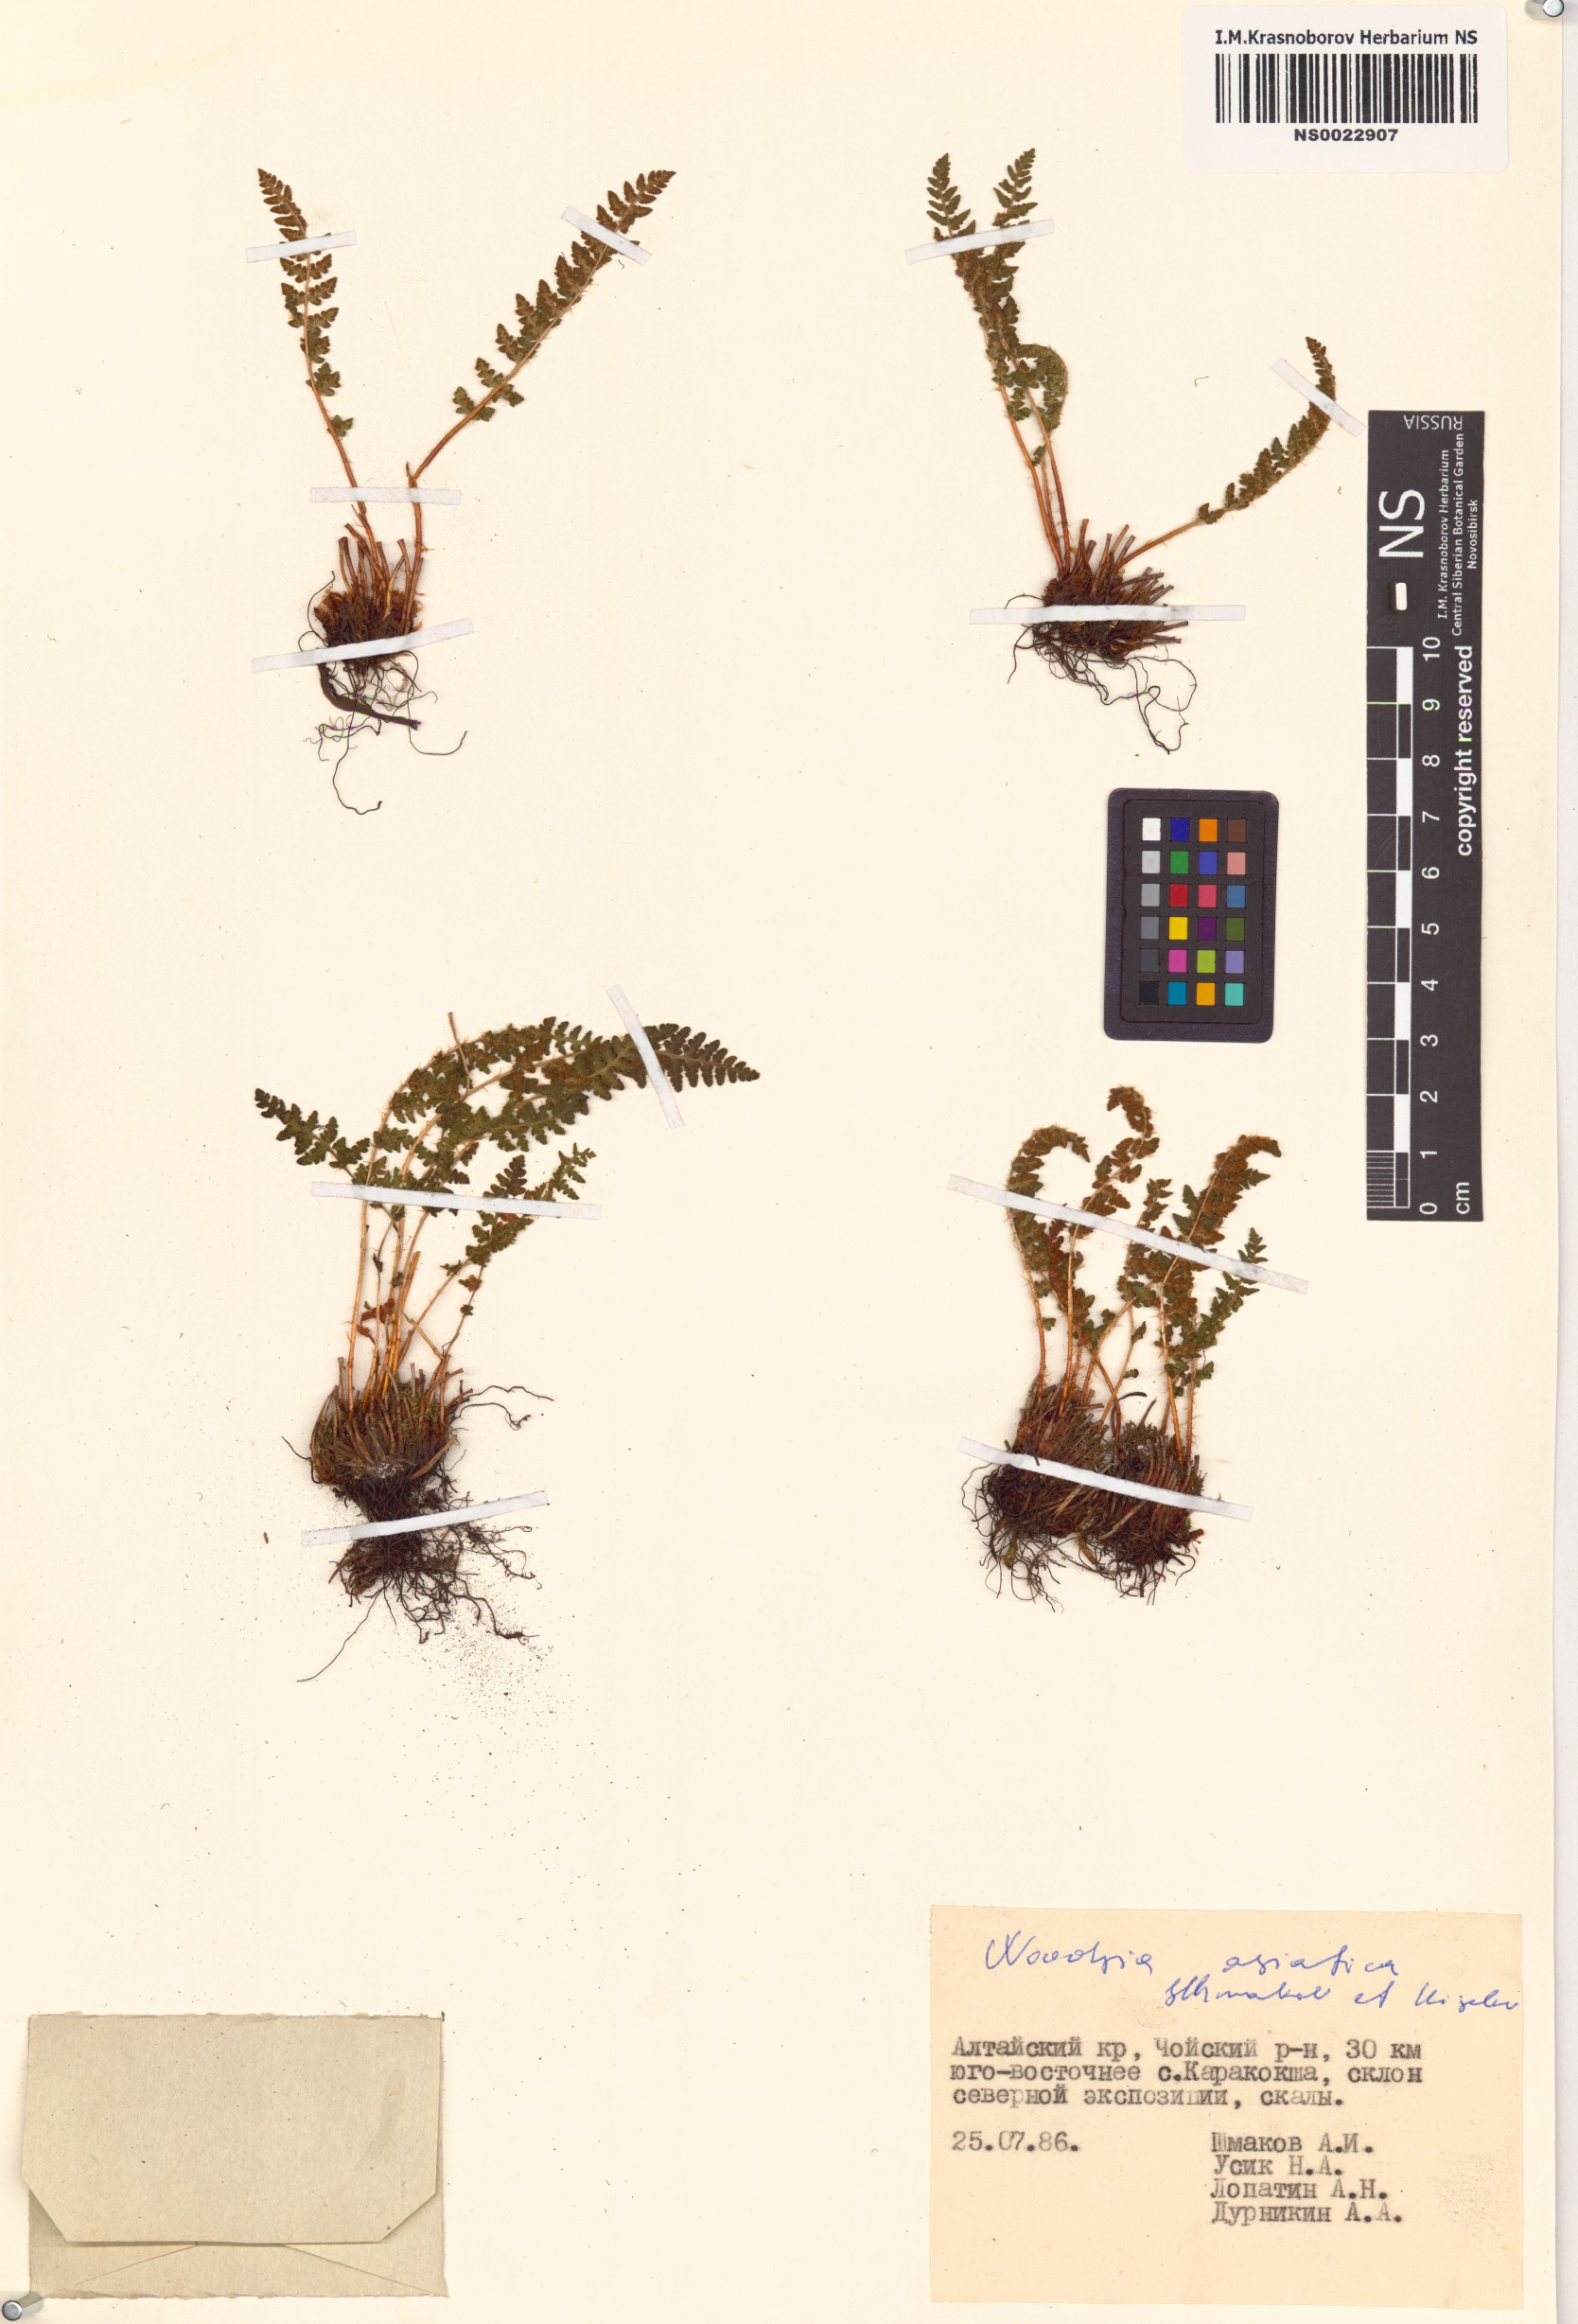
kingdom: Plantae
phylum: Tracheophyta
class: Polypodiopsida
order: Polypodiales
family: Woodsiaceae
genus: Woodsia
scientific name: Woodsia asiatica
